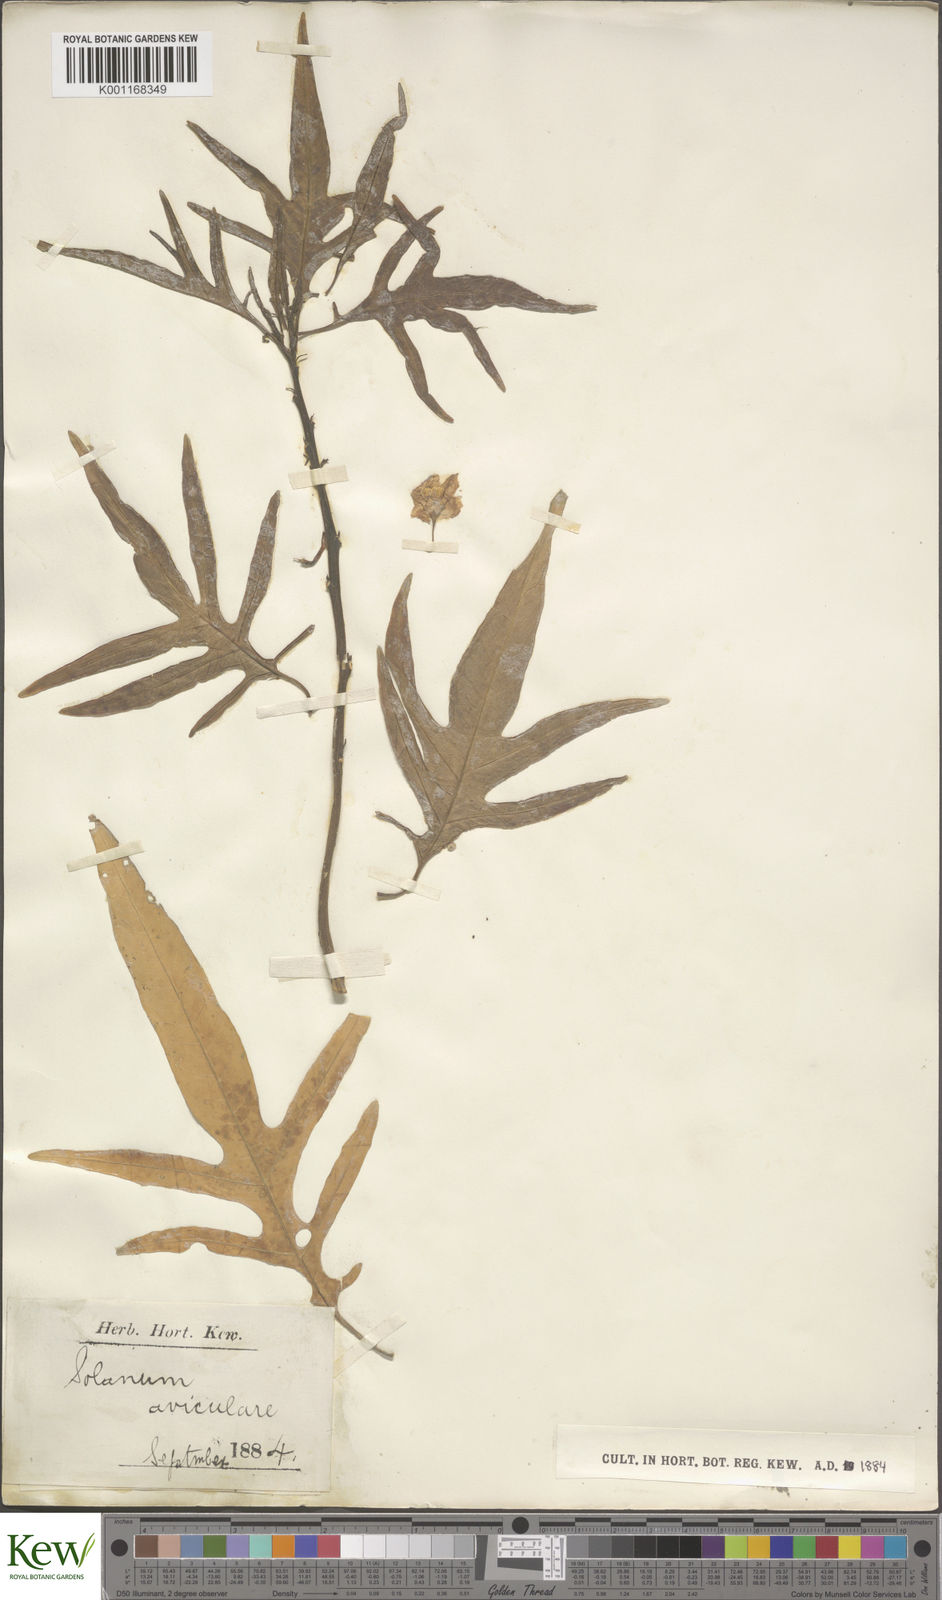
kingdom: Plantae
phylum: Tracheophyta
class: Magnoliopsida
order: Solanales
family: Solanaceae
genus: Solanum
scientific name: Solanum aviculare
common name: New zealand nightshade
